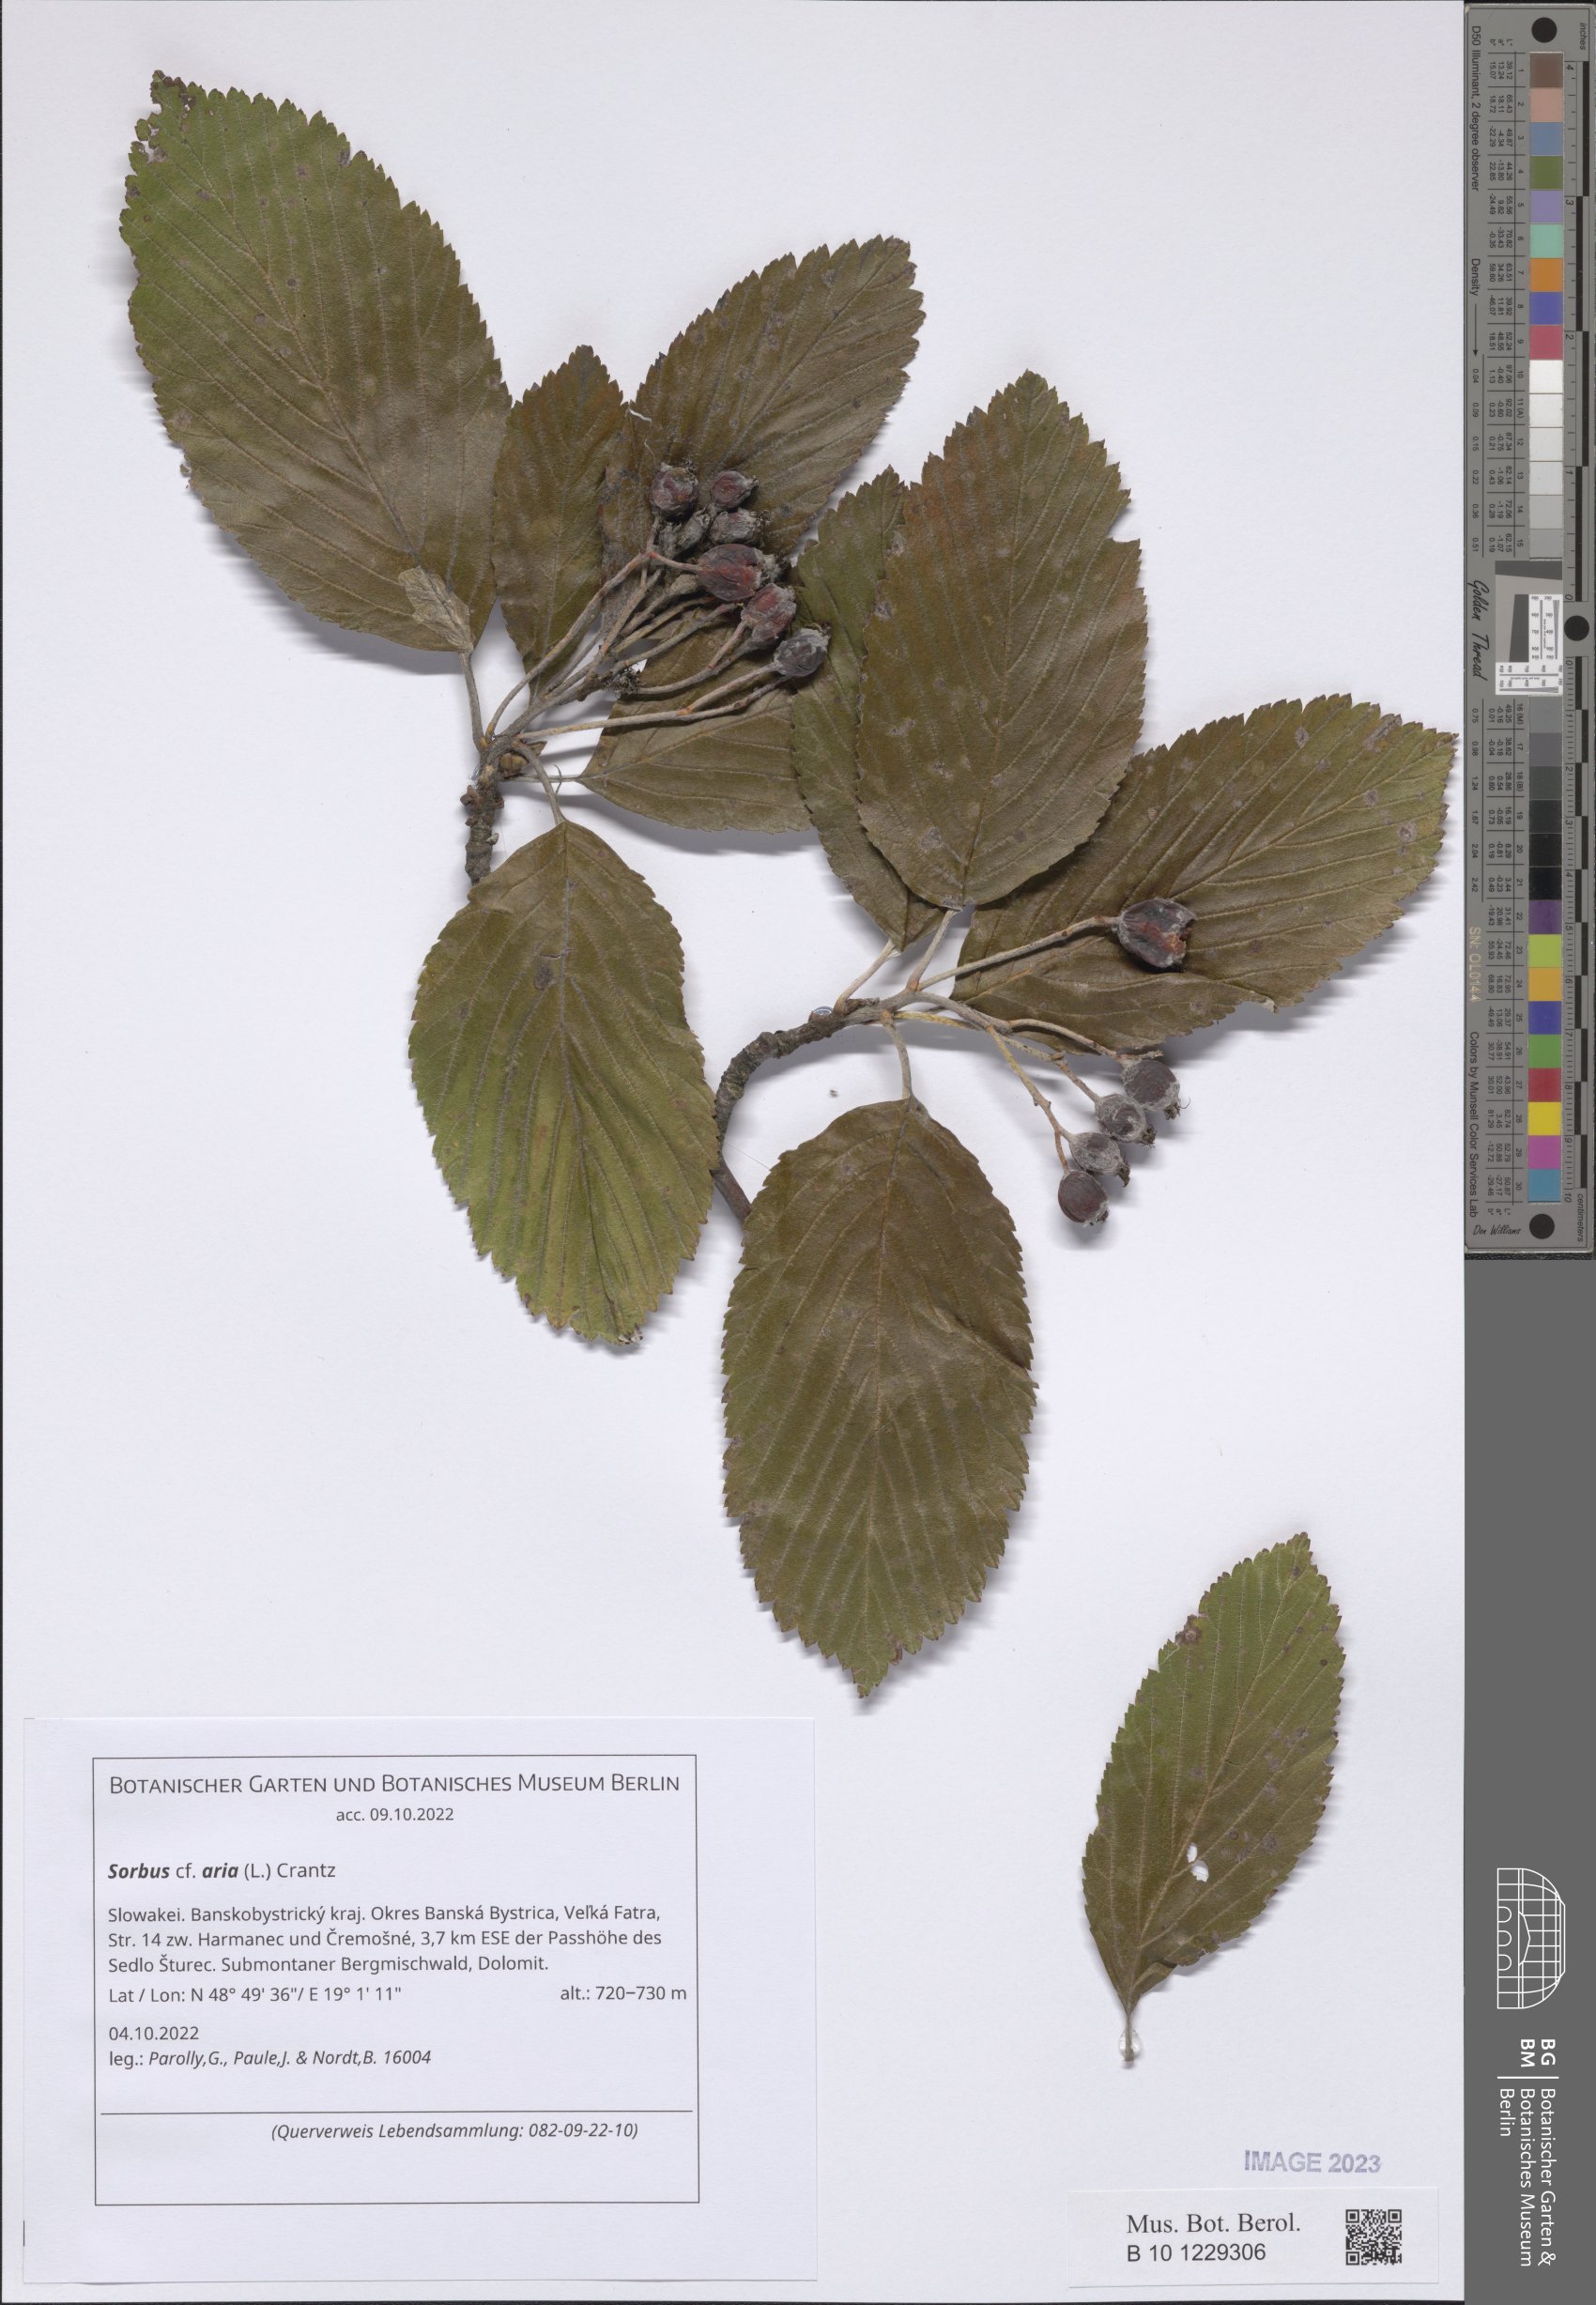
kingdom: Plantae
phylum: Tracheophyta
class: Magnoliopsida
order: Rosales
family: Rosaceae
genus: Aria
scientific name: Aria edulis
